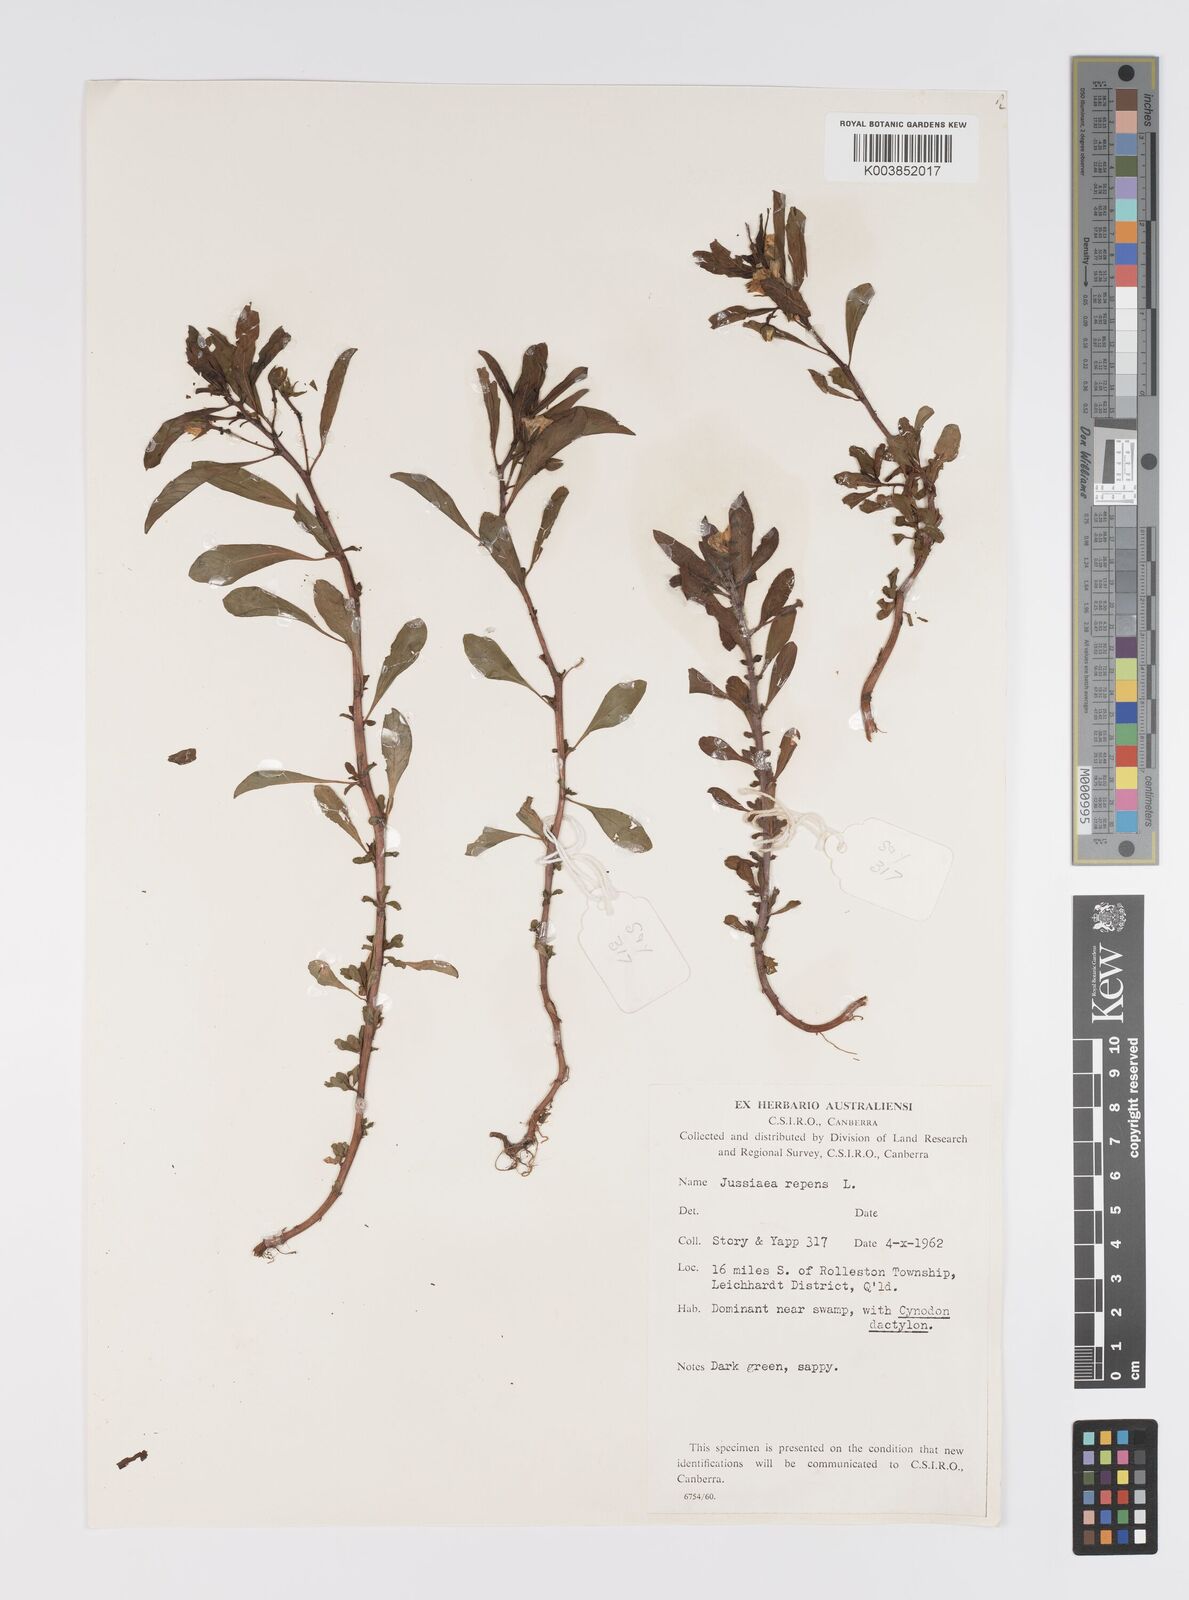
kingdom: Plantae
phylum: Tracheophyta
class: Magnoliopsida
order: Myrtales
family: Onagraceae
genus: Ludwigia
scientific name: Ludwigia peploides
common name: Floating primrose-willow
